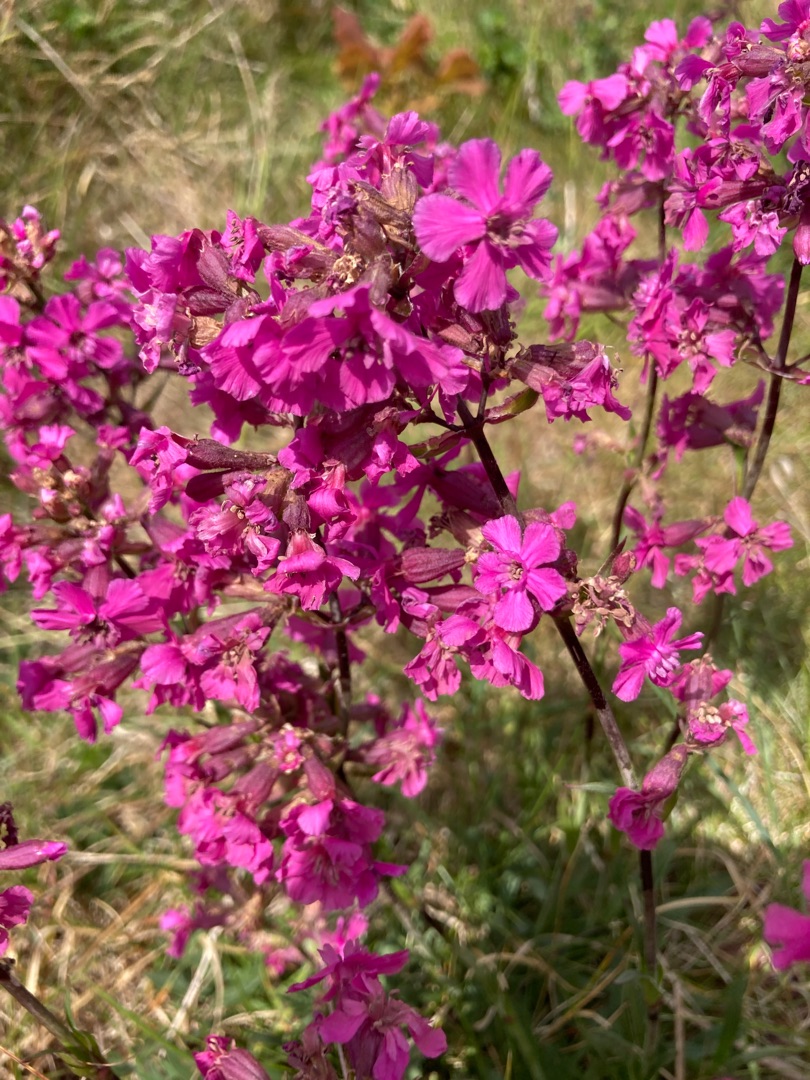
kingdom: Plantae
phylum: Tracheophyta
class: Magnoliopsida
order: Caryophyllales
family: Caryophyllaceae
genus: Viscaria
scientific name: Viscaria vulgaris
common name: Tjærenellike
